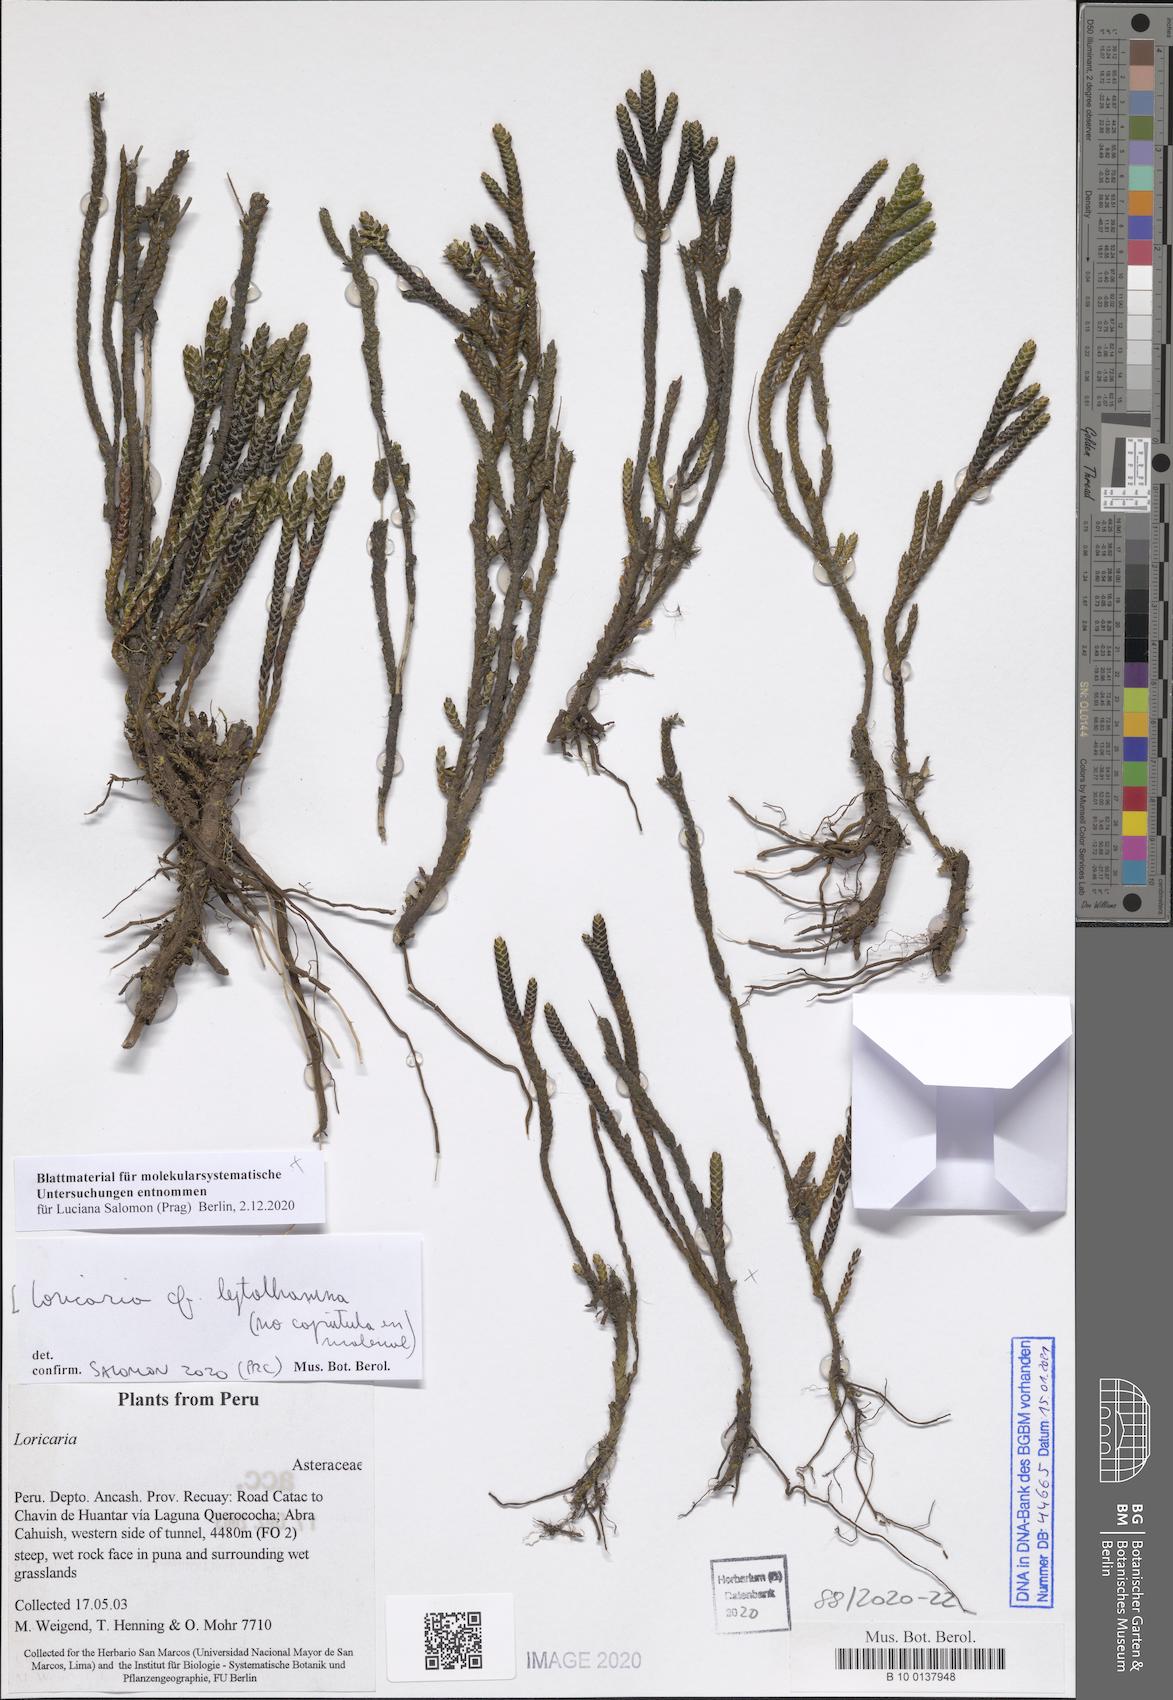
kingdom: Plantae
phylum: Tracheophyta
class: Magnoliopsida
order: Asterales
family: Asteraceae
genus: Andicolea
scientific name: Andicolea leptothamna
